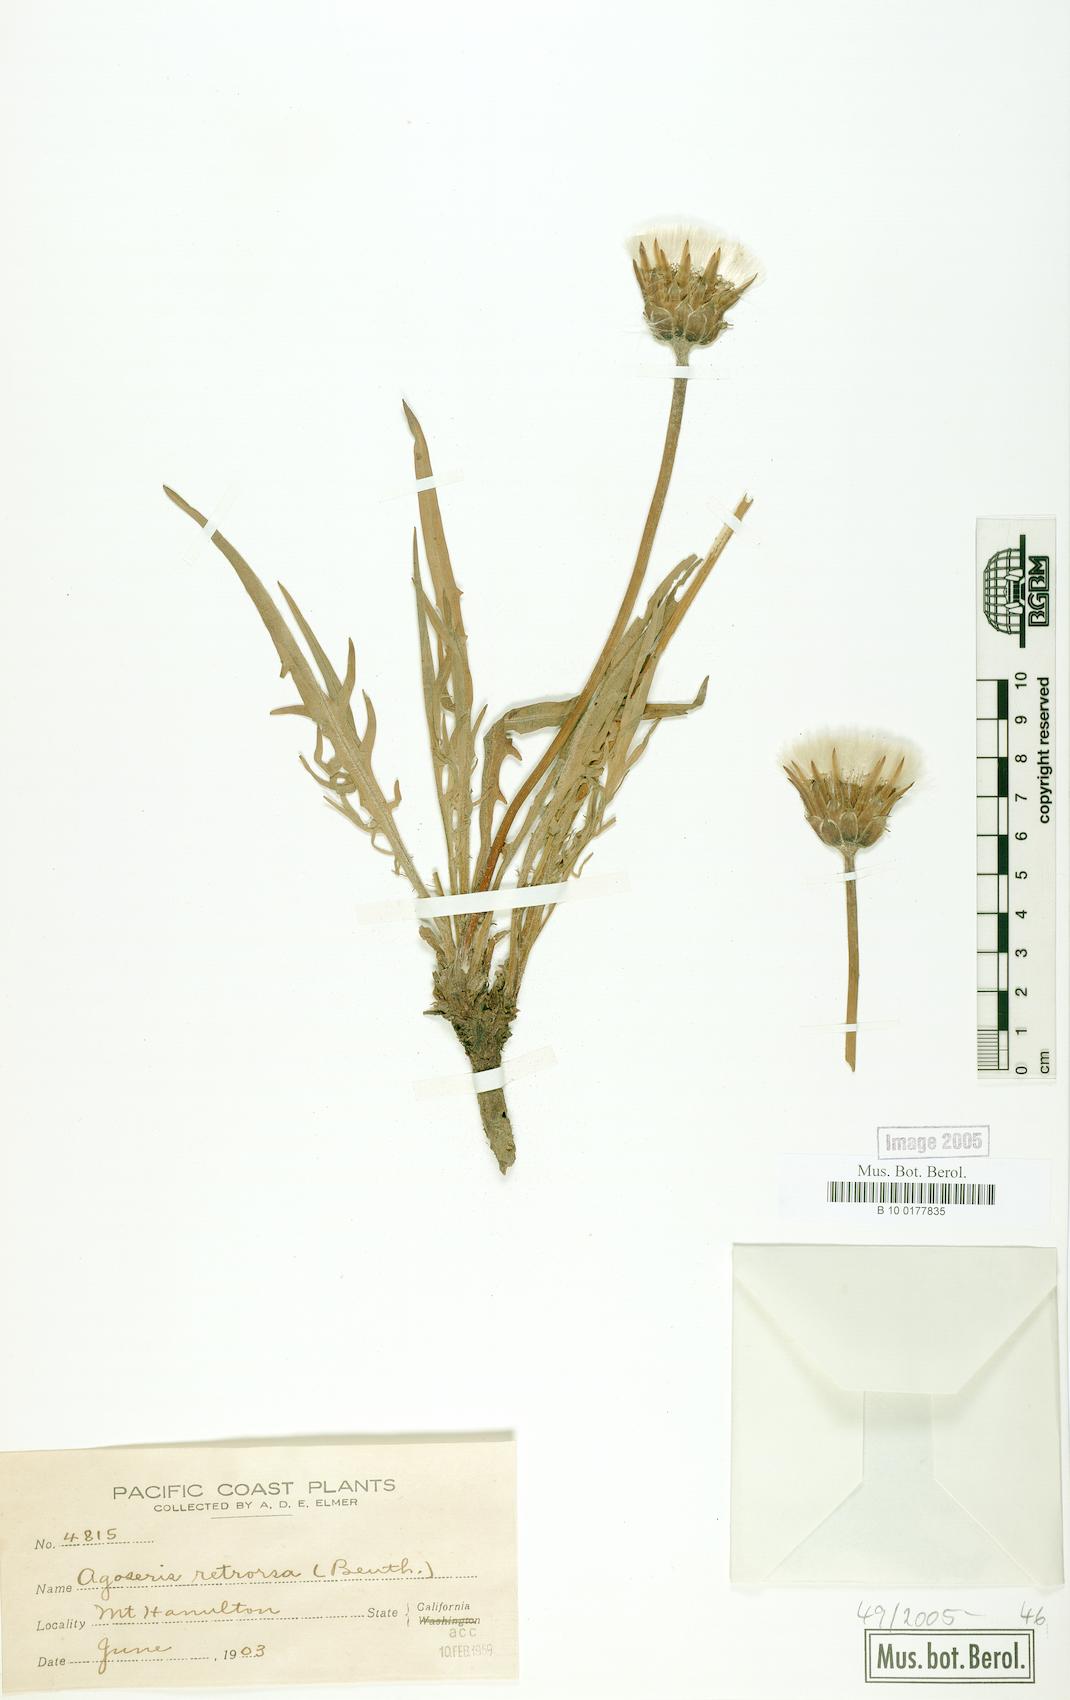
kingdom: Plantae
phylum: Tracheophyta
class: Magnoliopsida
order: Asterales
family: Asteraceae
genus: Agoseris
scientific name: Agoseris retrorsa
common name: Spearleaf agoseris
